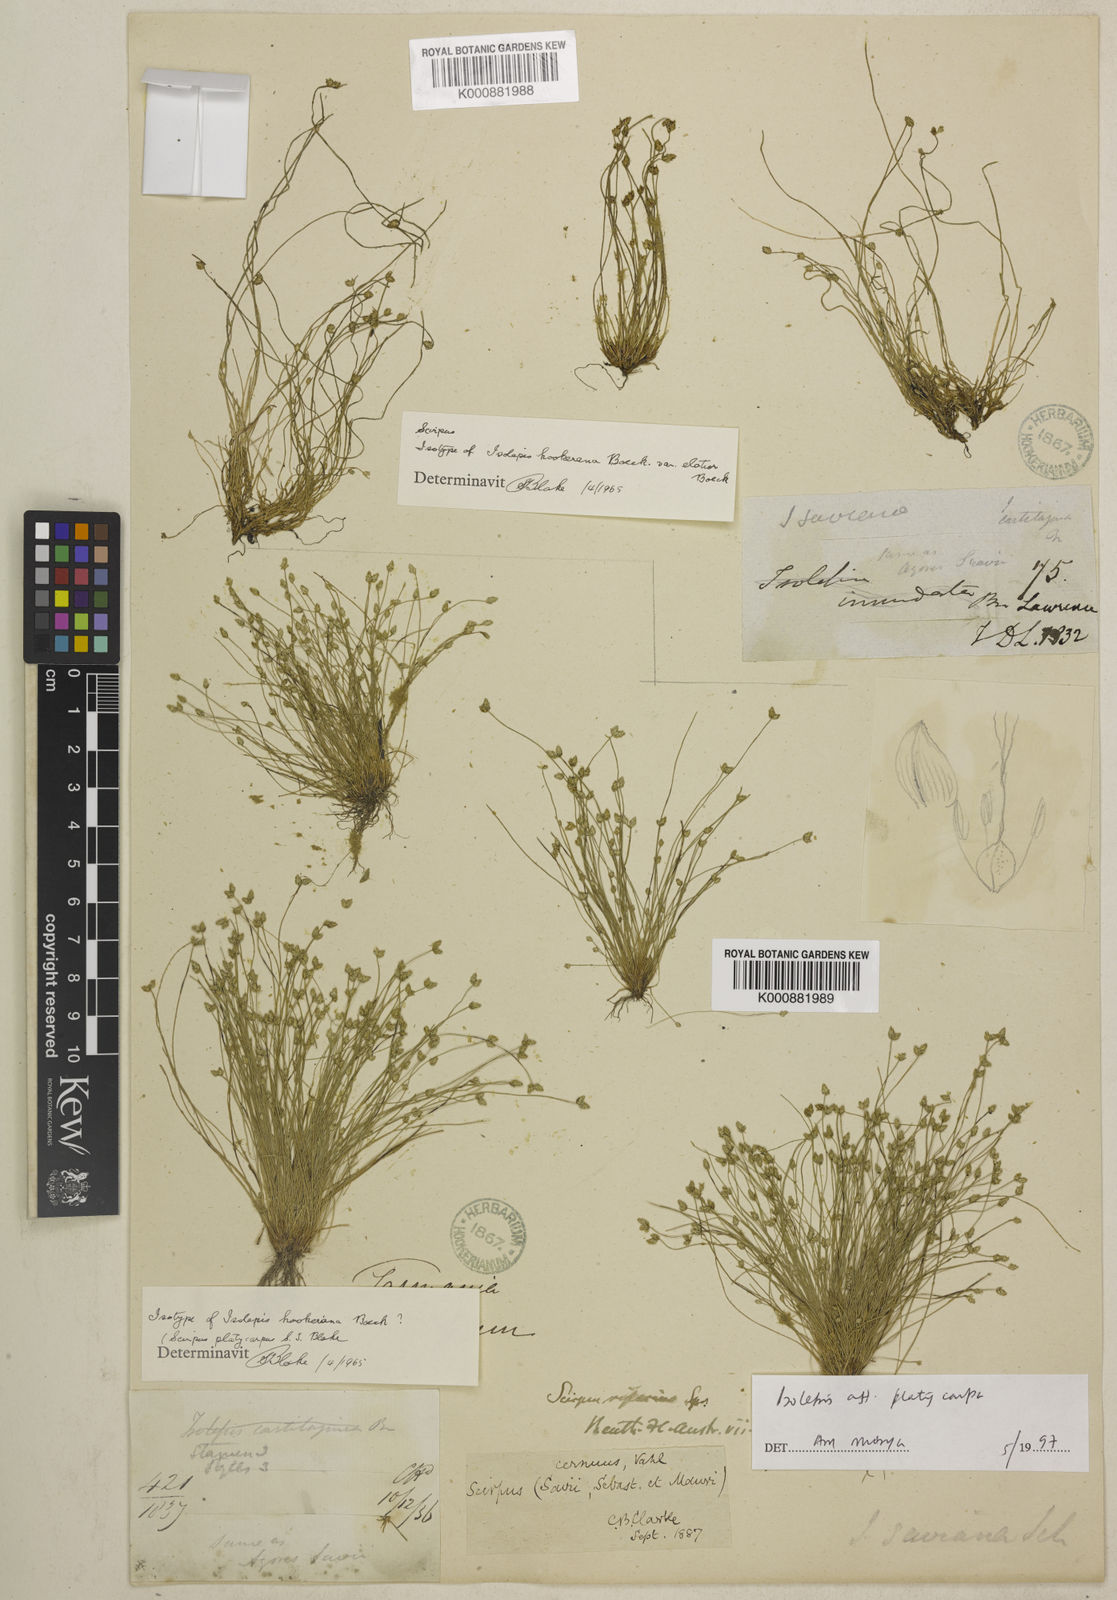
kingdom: Plantae
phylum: Tracheophyta
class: Liliopsida
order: Poales
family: Cyperaceae
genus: Isolepis
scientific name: Isolepis multicaulis
